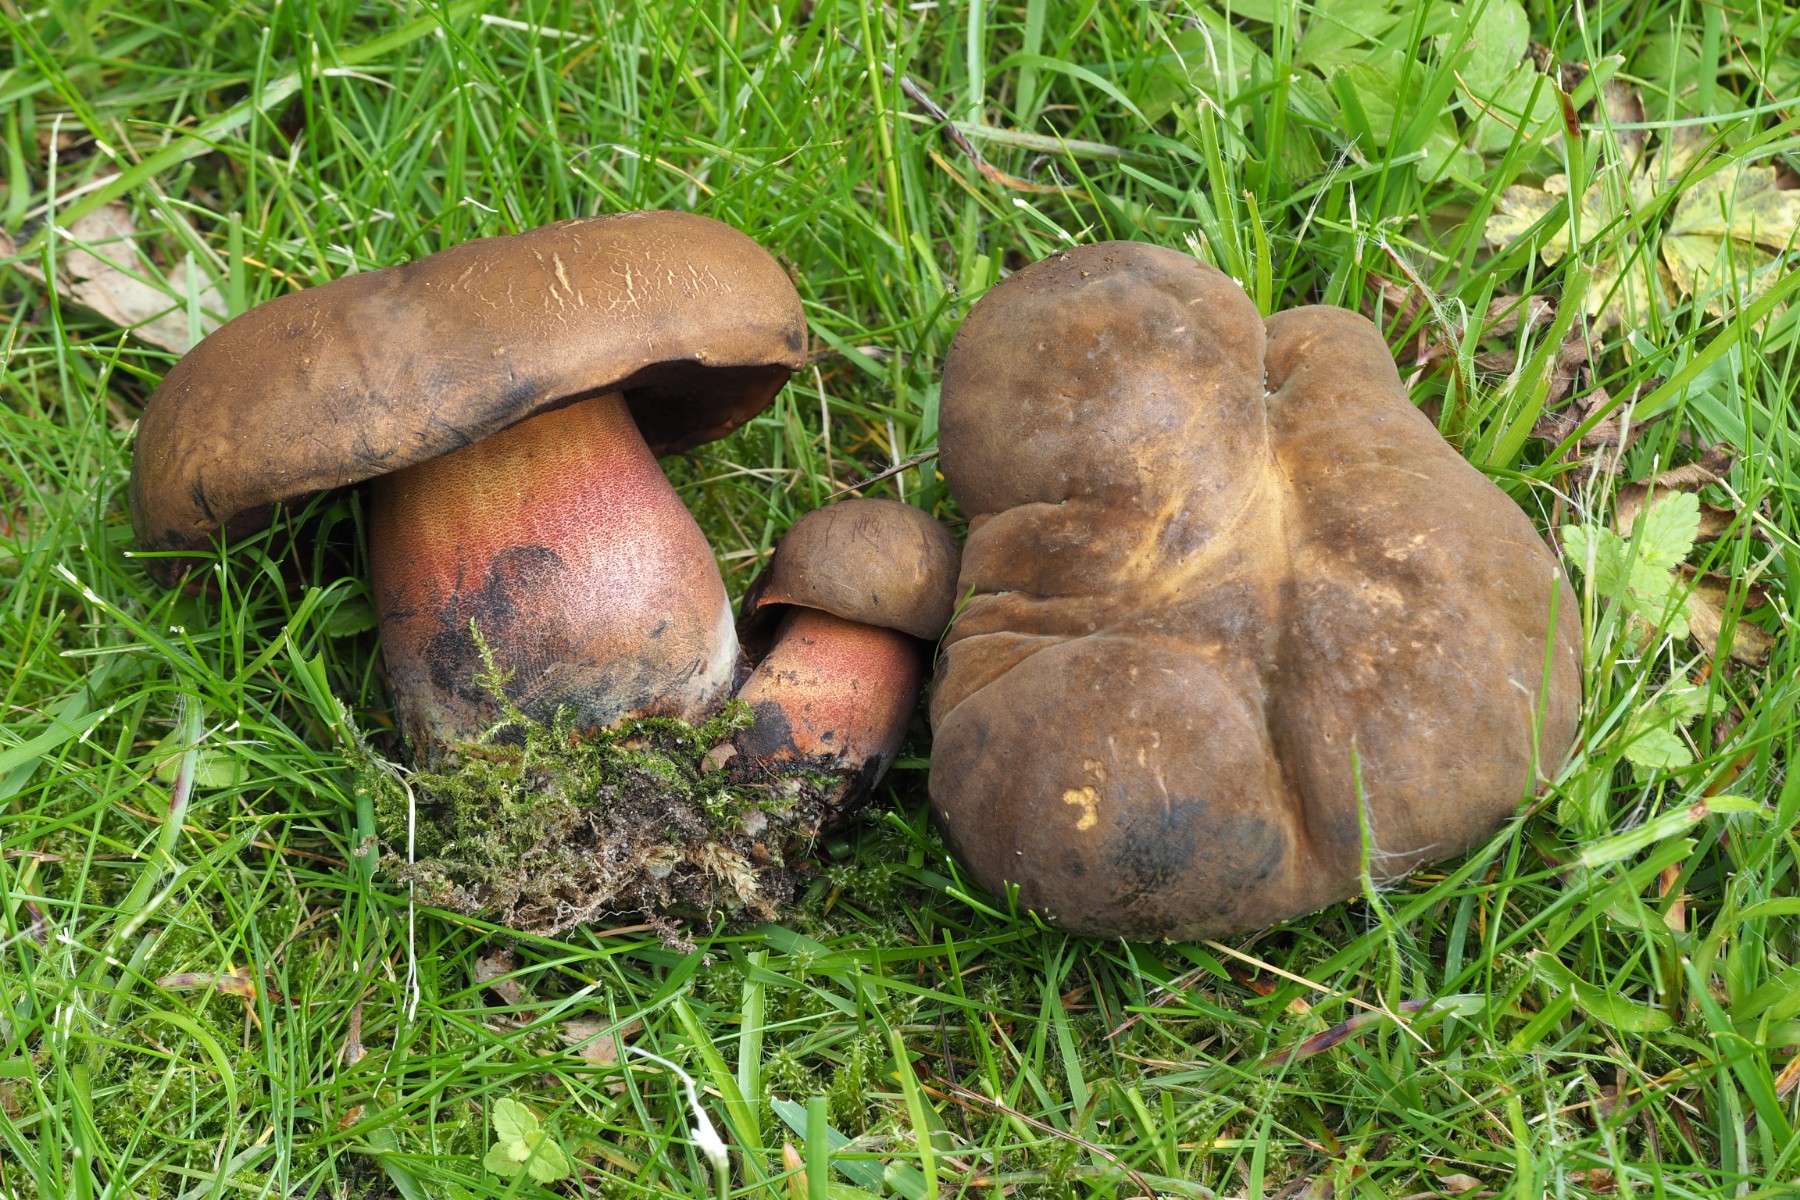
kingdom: Fungi
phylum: Basidiomycota
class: Agaricomycetes
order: Boletales
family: Boletaceae
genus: Neoboletus
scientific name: Neoboletus erythropus
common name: punktstokket indigorørhat
